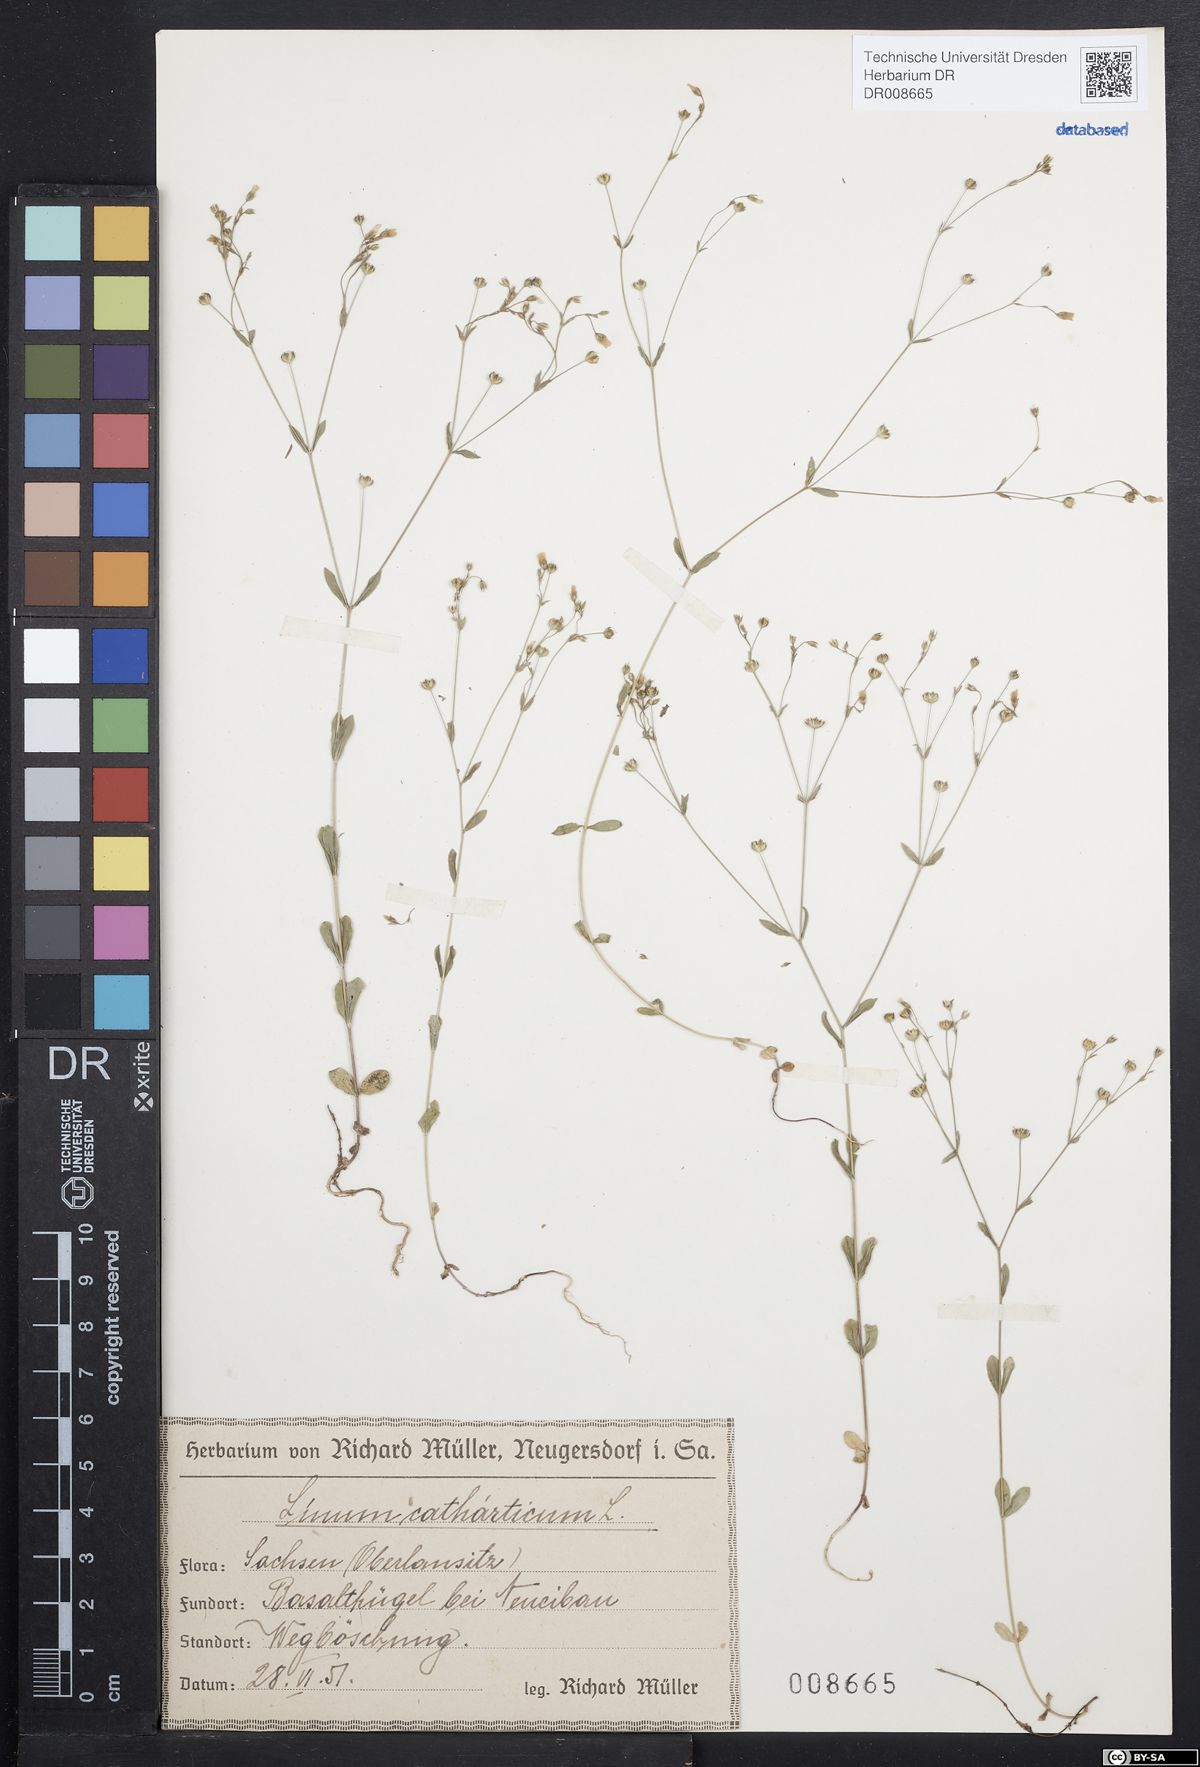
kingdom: Plantae
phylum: Tracheophyta
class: Magnoliopsida
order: Malpighiales
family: Linaceae
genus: Linum
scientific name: Linum catharticum
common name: Fairy flax
